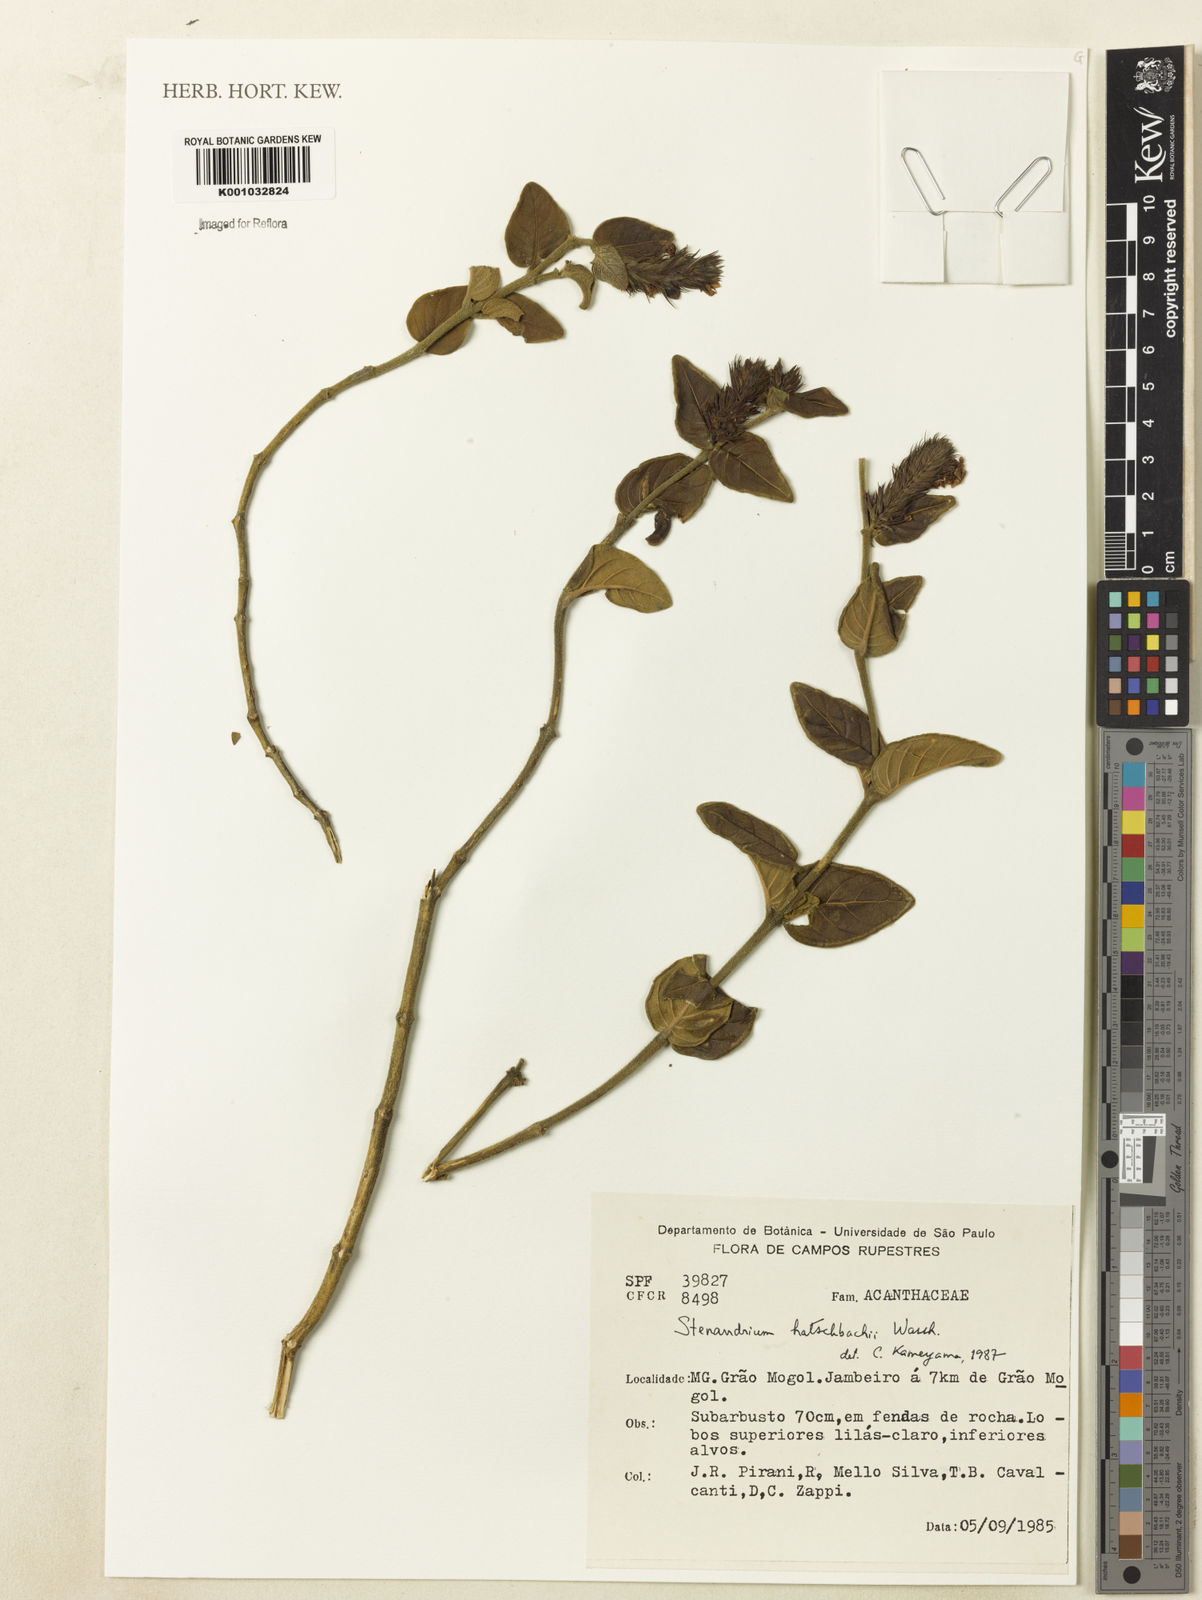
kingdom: Plantae
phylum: Tracheophyta
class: Magnoliopsida
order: Lamiales
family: Acanthaceae
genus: Stenandrium
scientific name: Stenandrium hatschbachii
